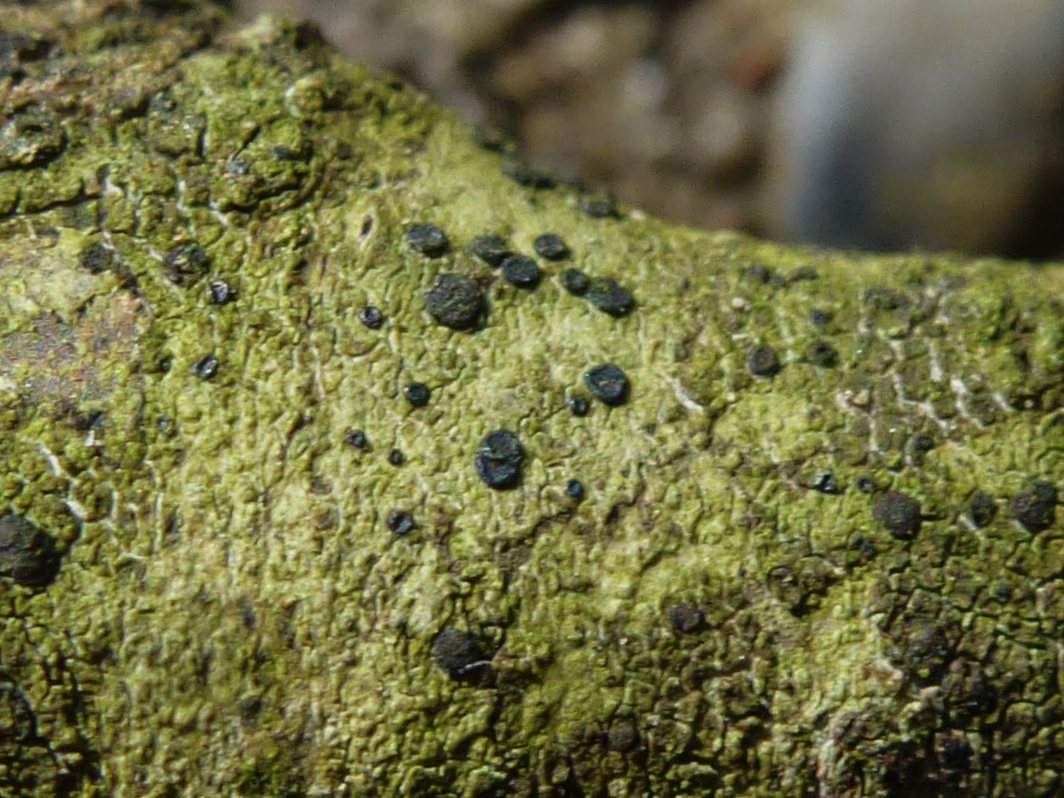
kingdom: Fungi
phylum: Ascomycota
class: Lecanoromycetes
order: Lecanorales
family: Lecanoraceae
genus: Lecidella
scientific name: Lecidella
